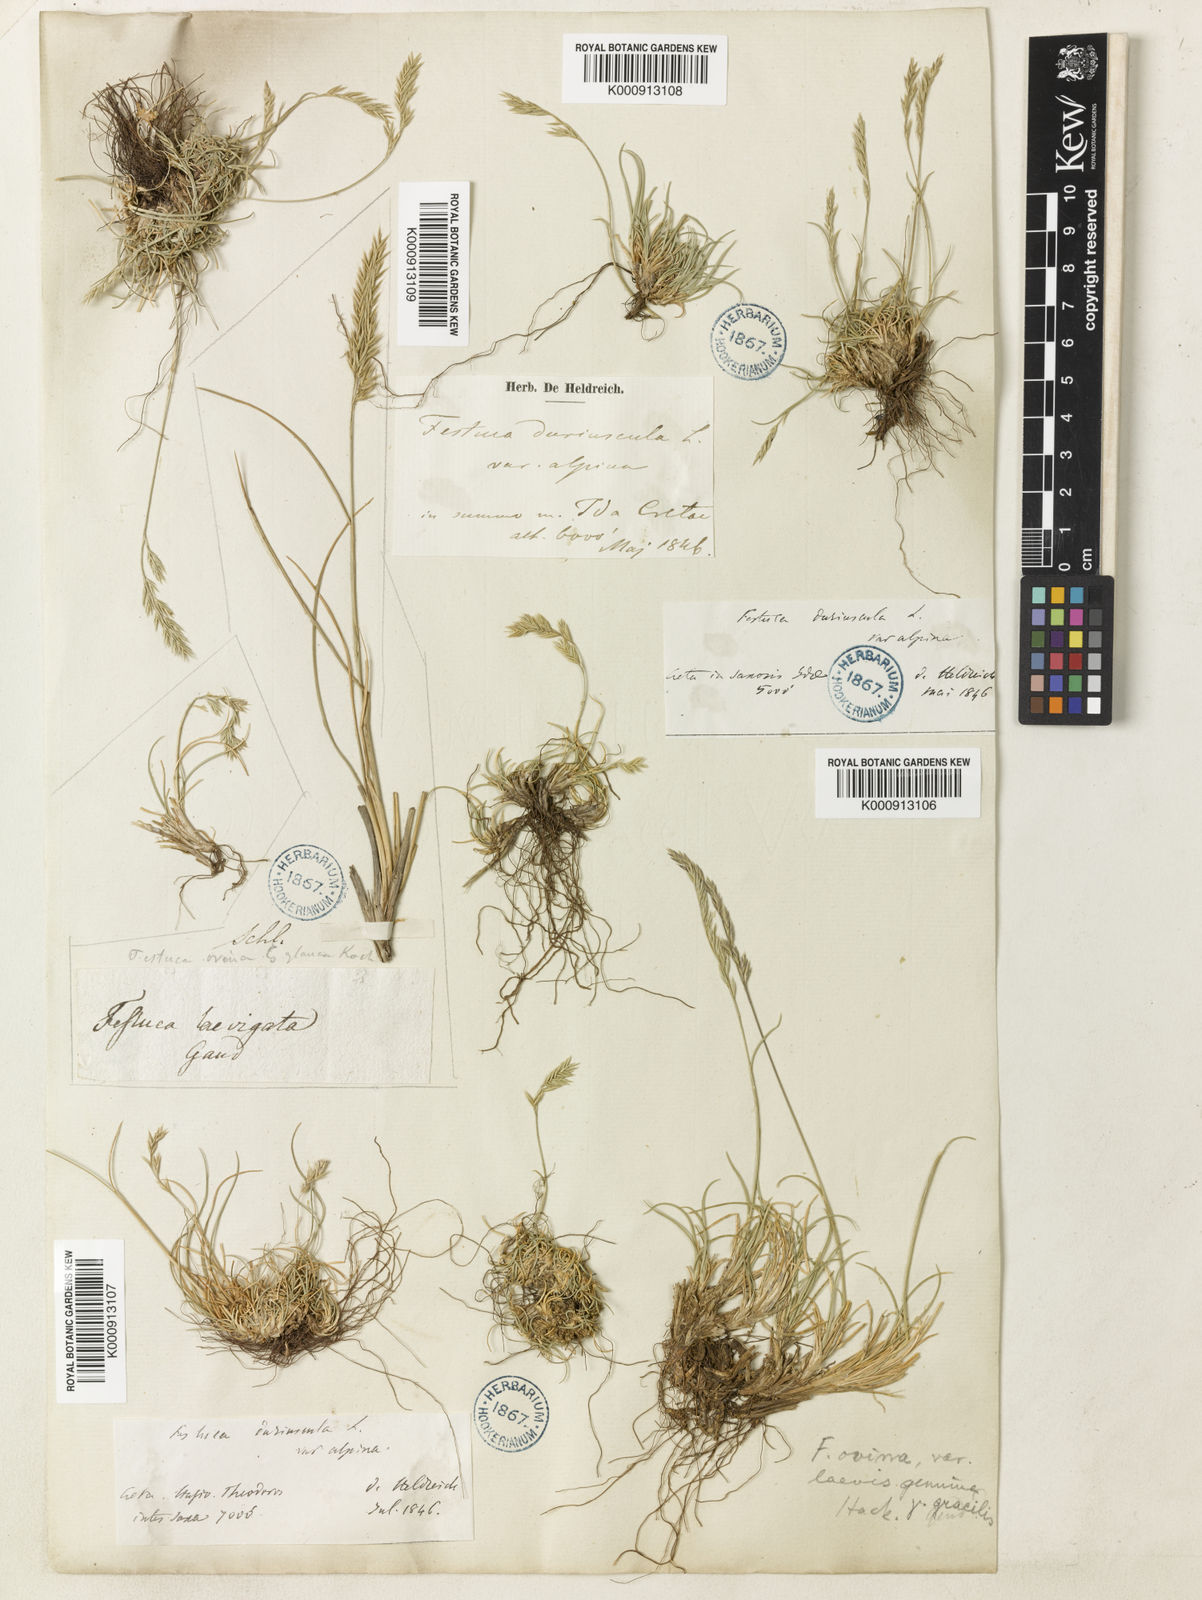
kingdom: Plantae
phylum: Tracheophyta
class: Liliopsida
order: Poales
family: Poaceae
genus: Festuca
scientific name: Festuca circummediterranea
